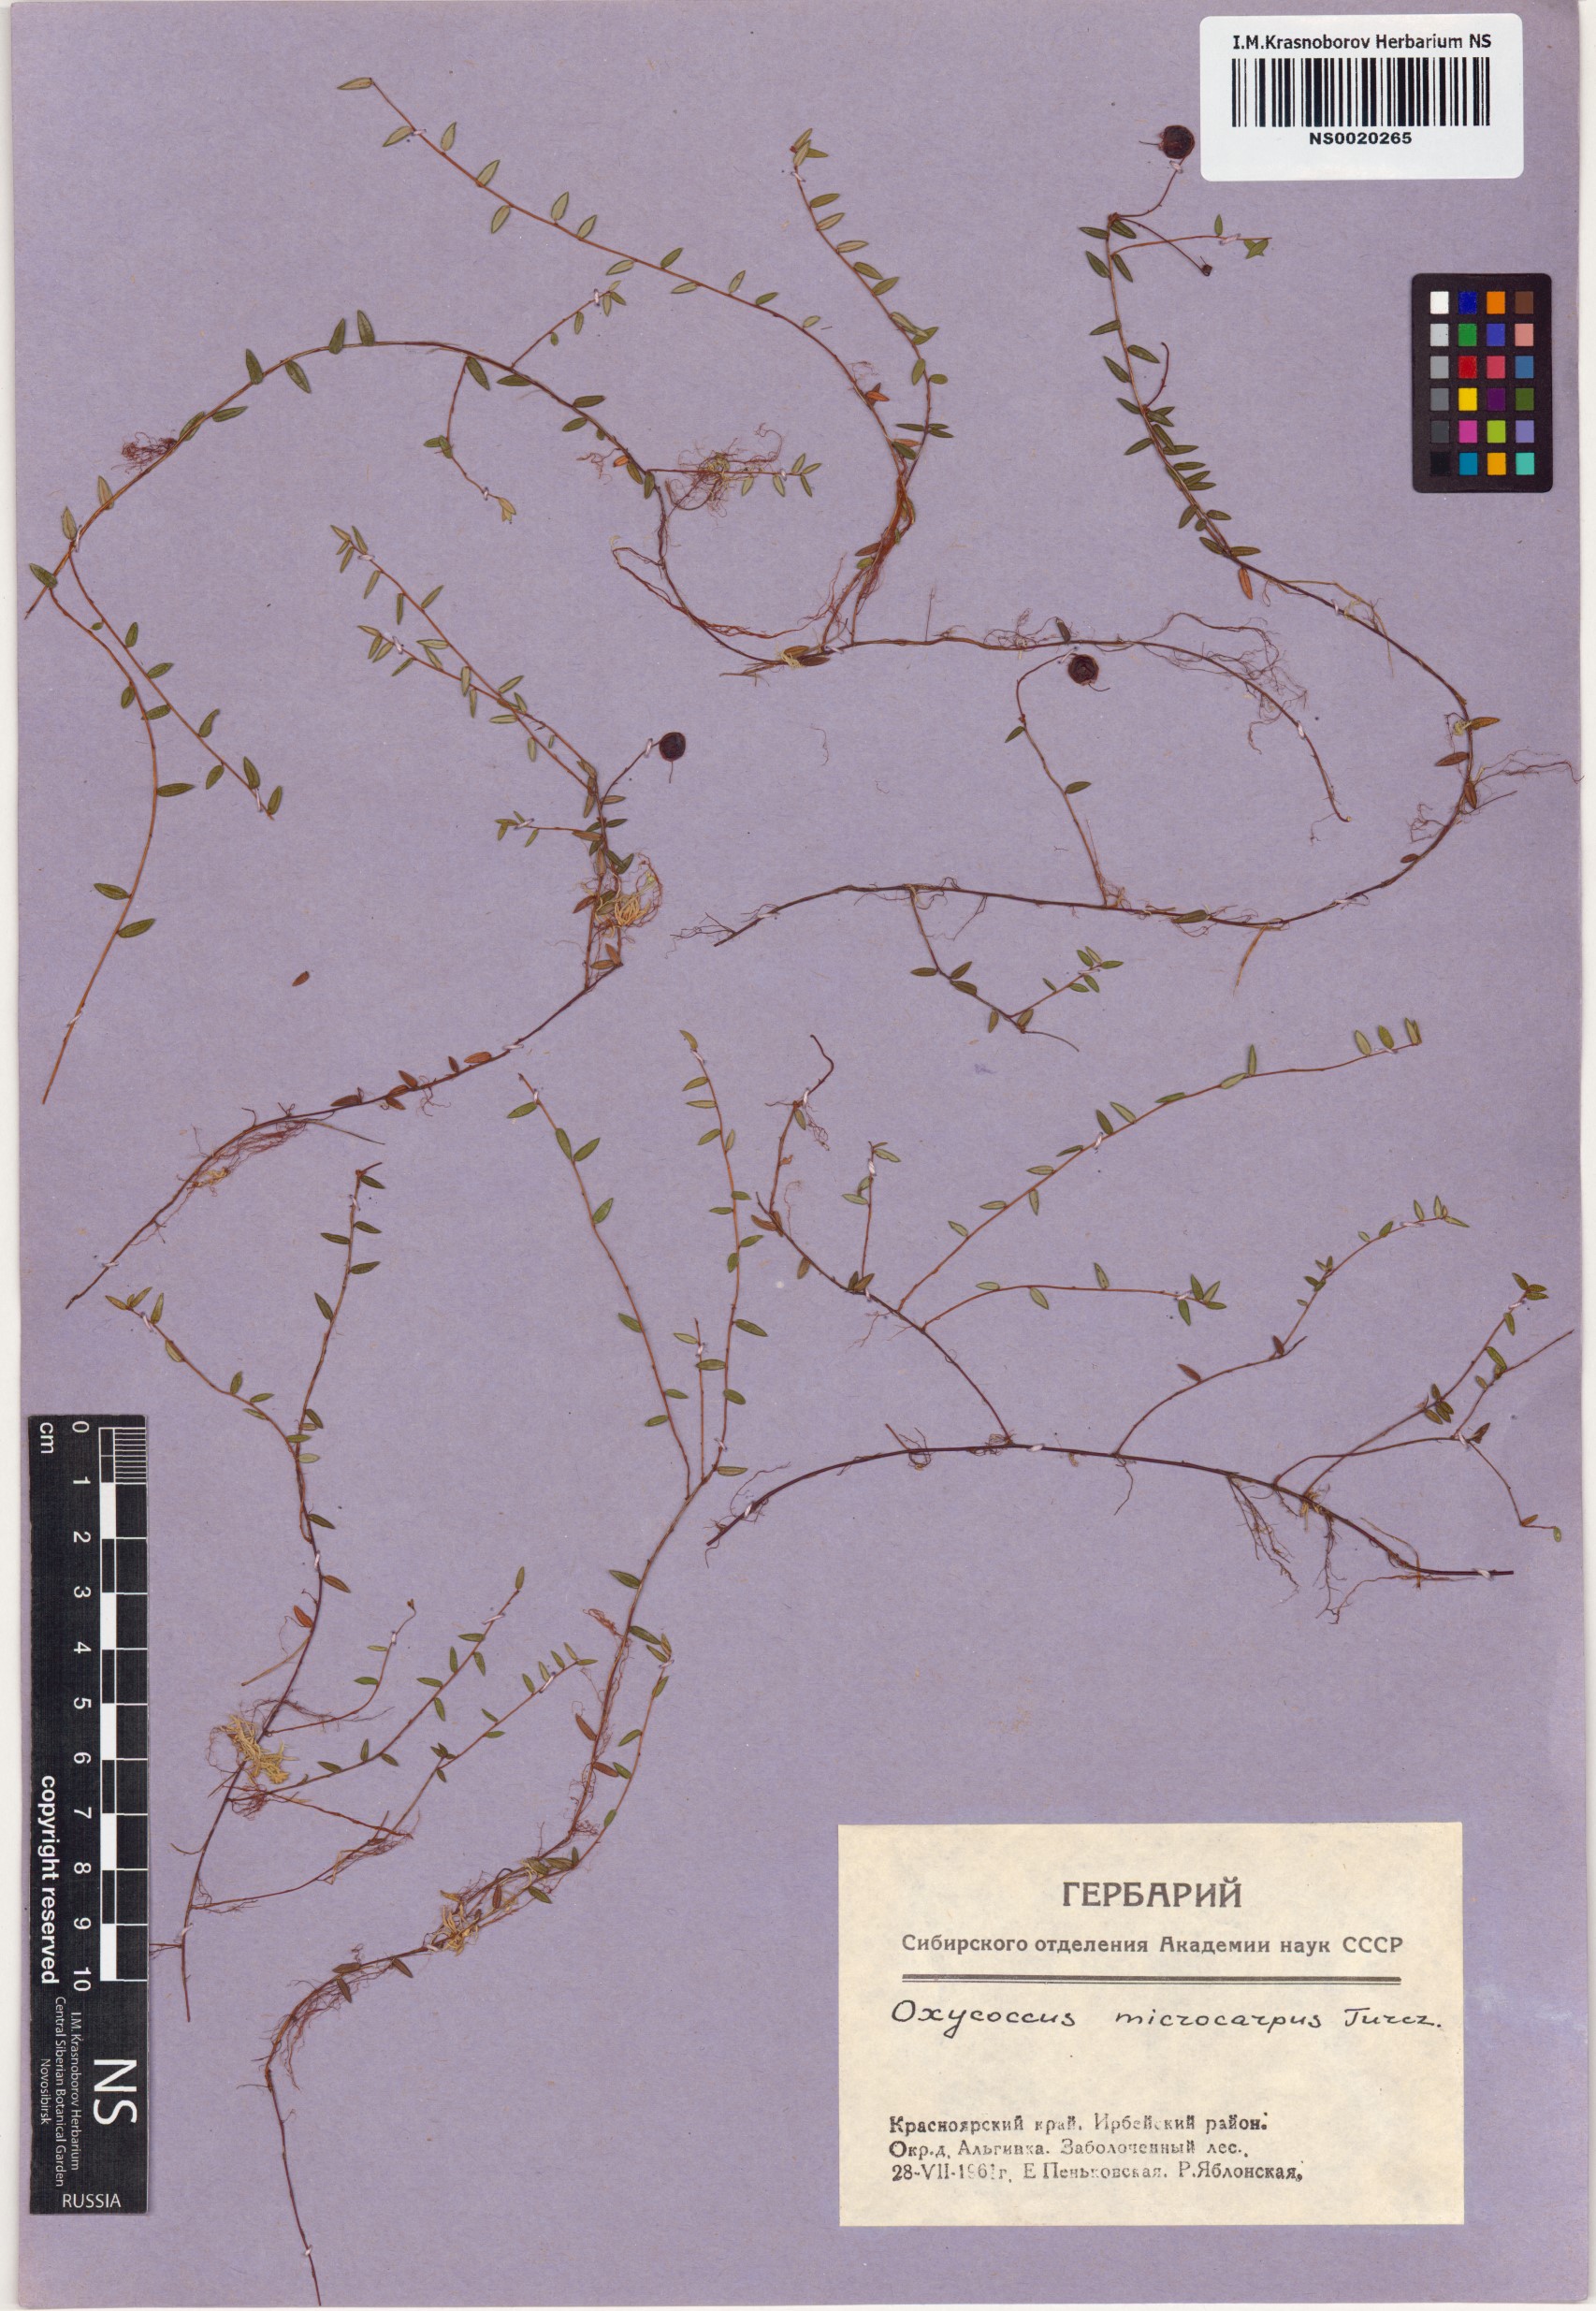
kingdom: Plantae
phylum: Tracheophyta
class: Magnoliopsida
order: Ericales
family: Ericaceae
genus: Vaccinium
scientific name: Vaccinium microcarpum
